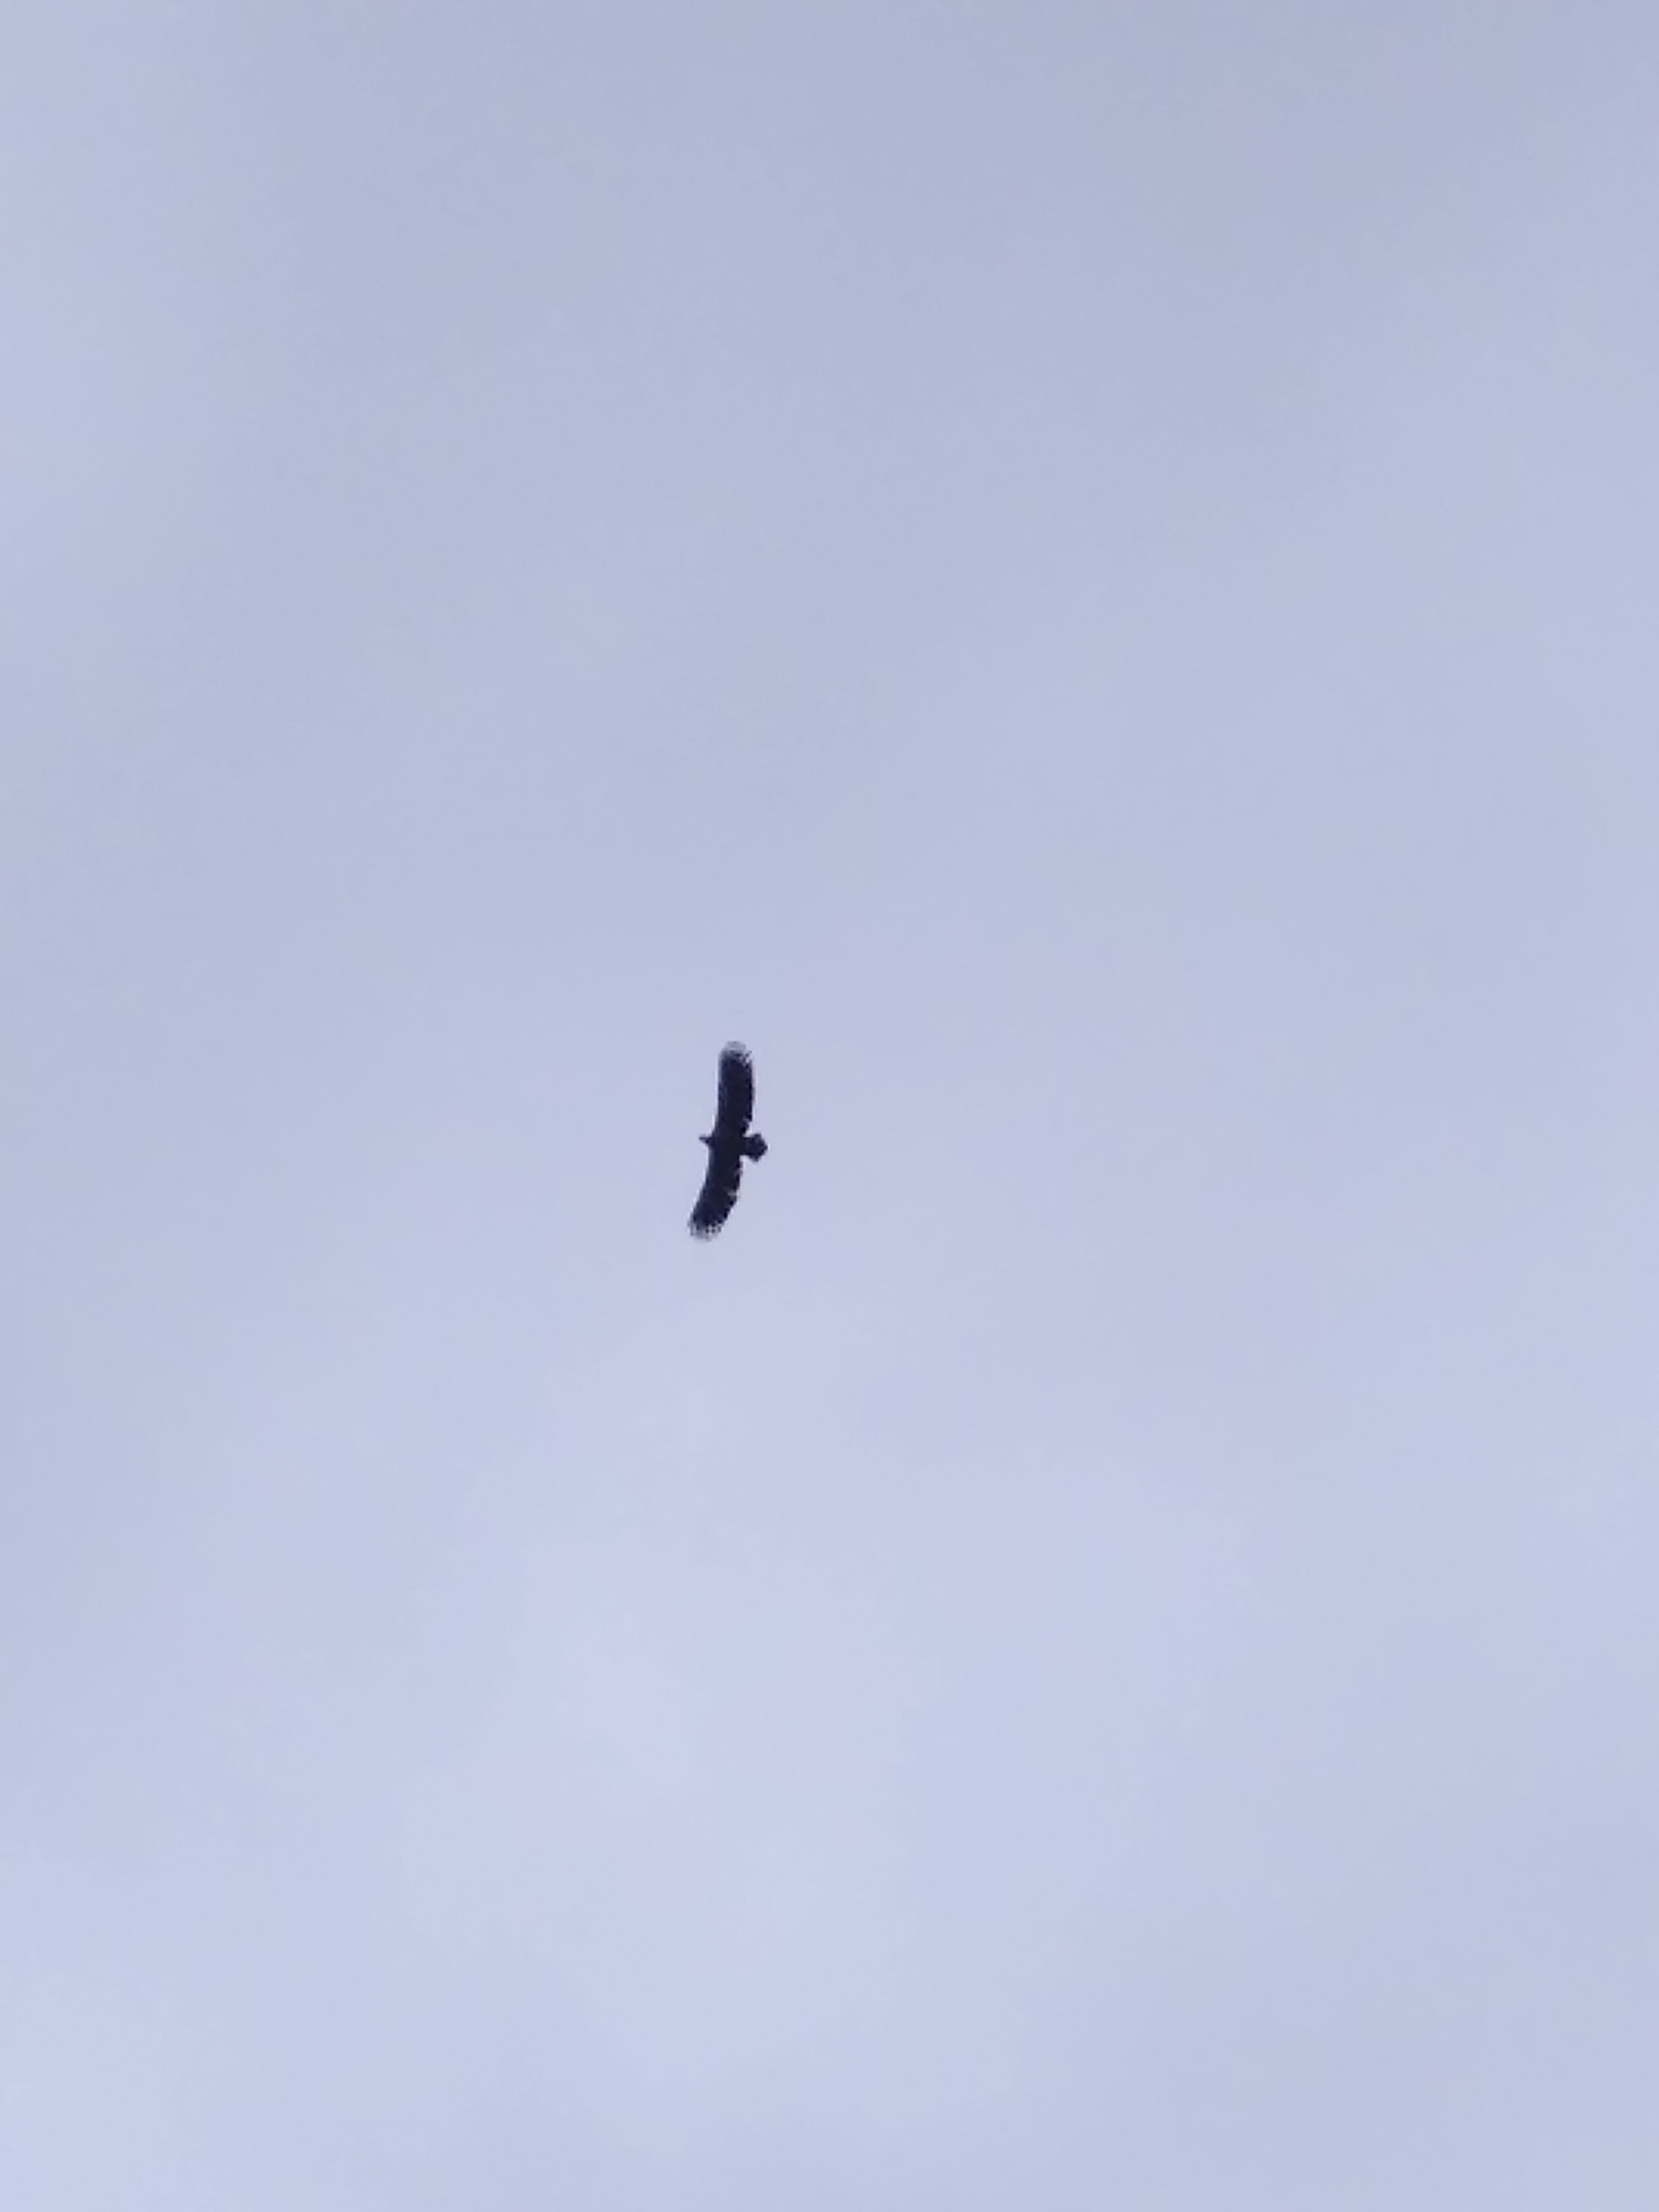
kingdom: Animalia
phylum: Chordata
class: Aves
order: Accipitriformes
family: Accipitridae
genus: Haliaeetus
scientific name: Haliaeetus albicilla
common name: Havørn
